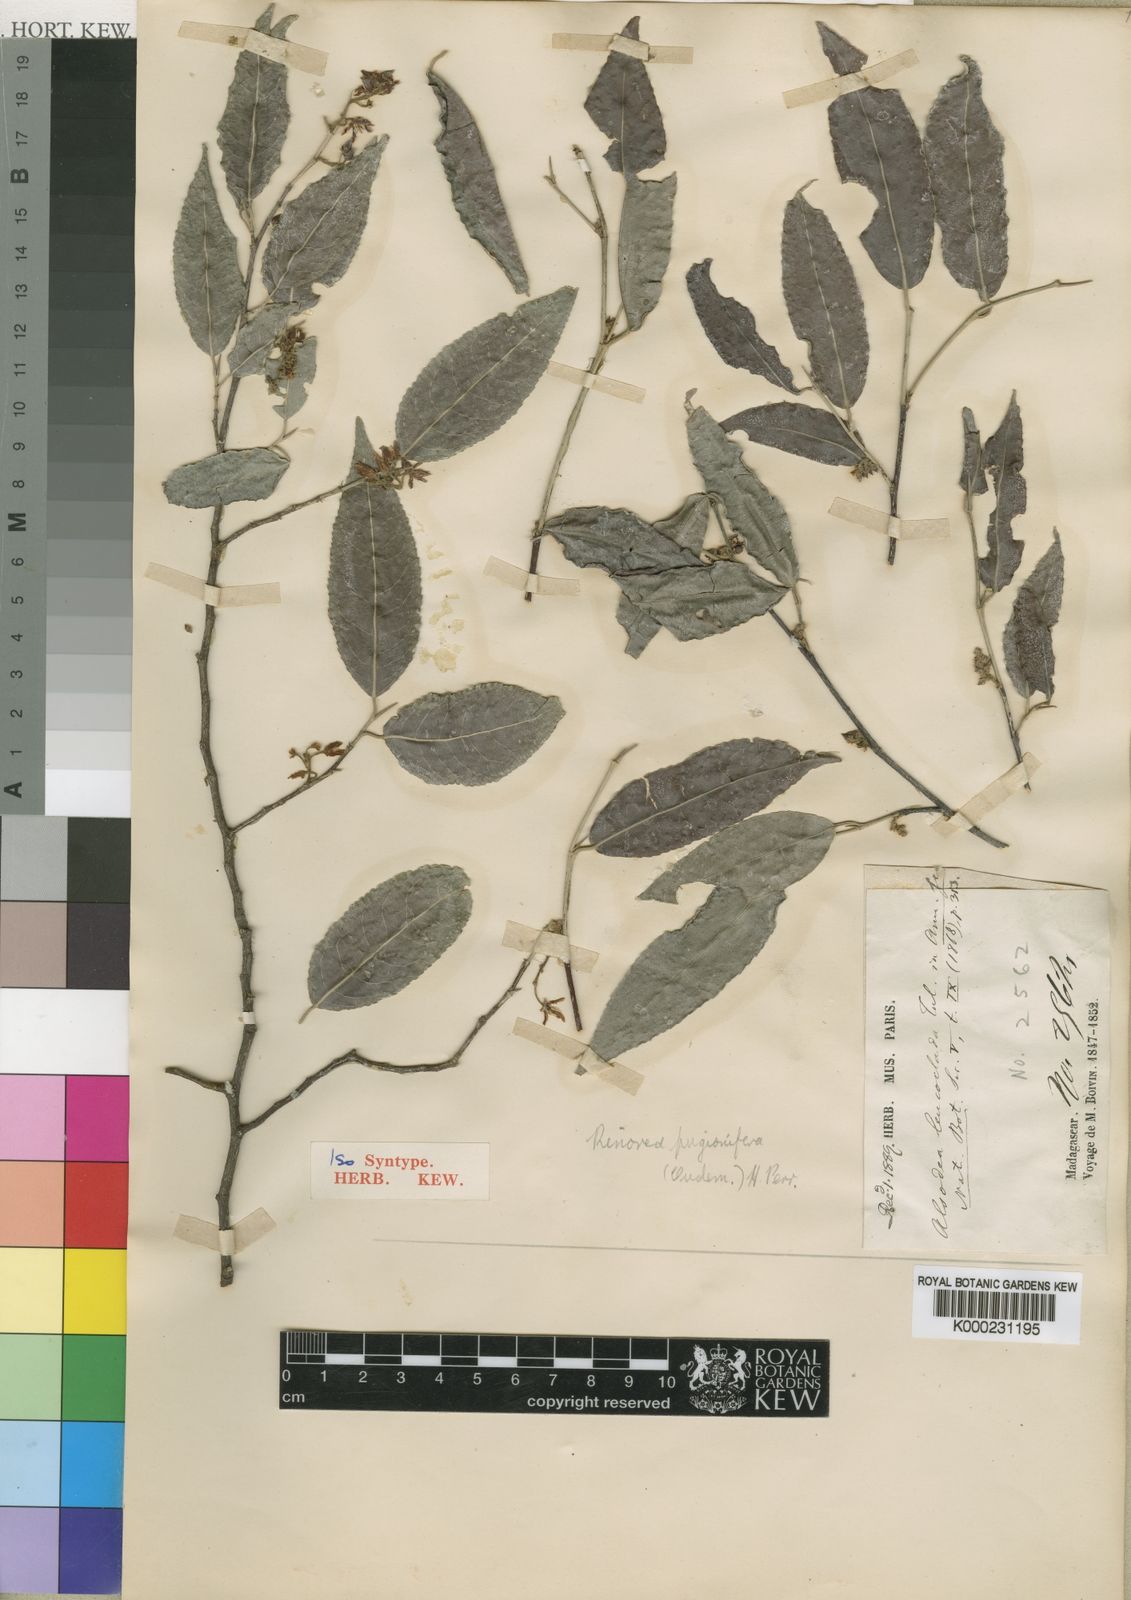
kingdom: Plantae
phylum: Tracheophyta
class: Magnoliopsida
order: Malpighiales
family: Violaceae
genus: Rinorea
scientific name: Rinorea pugionifera
